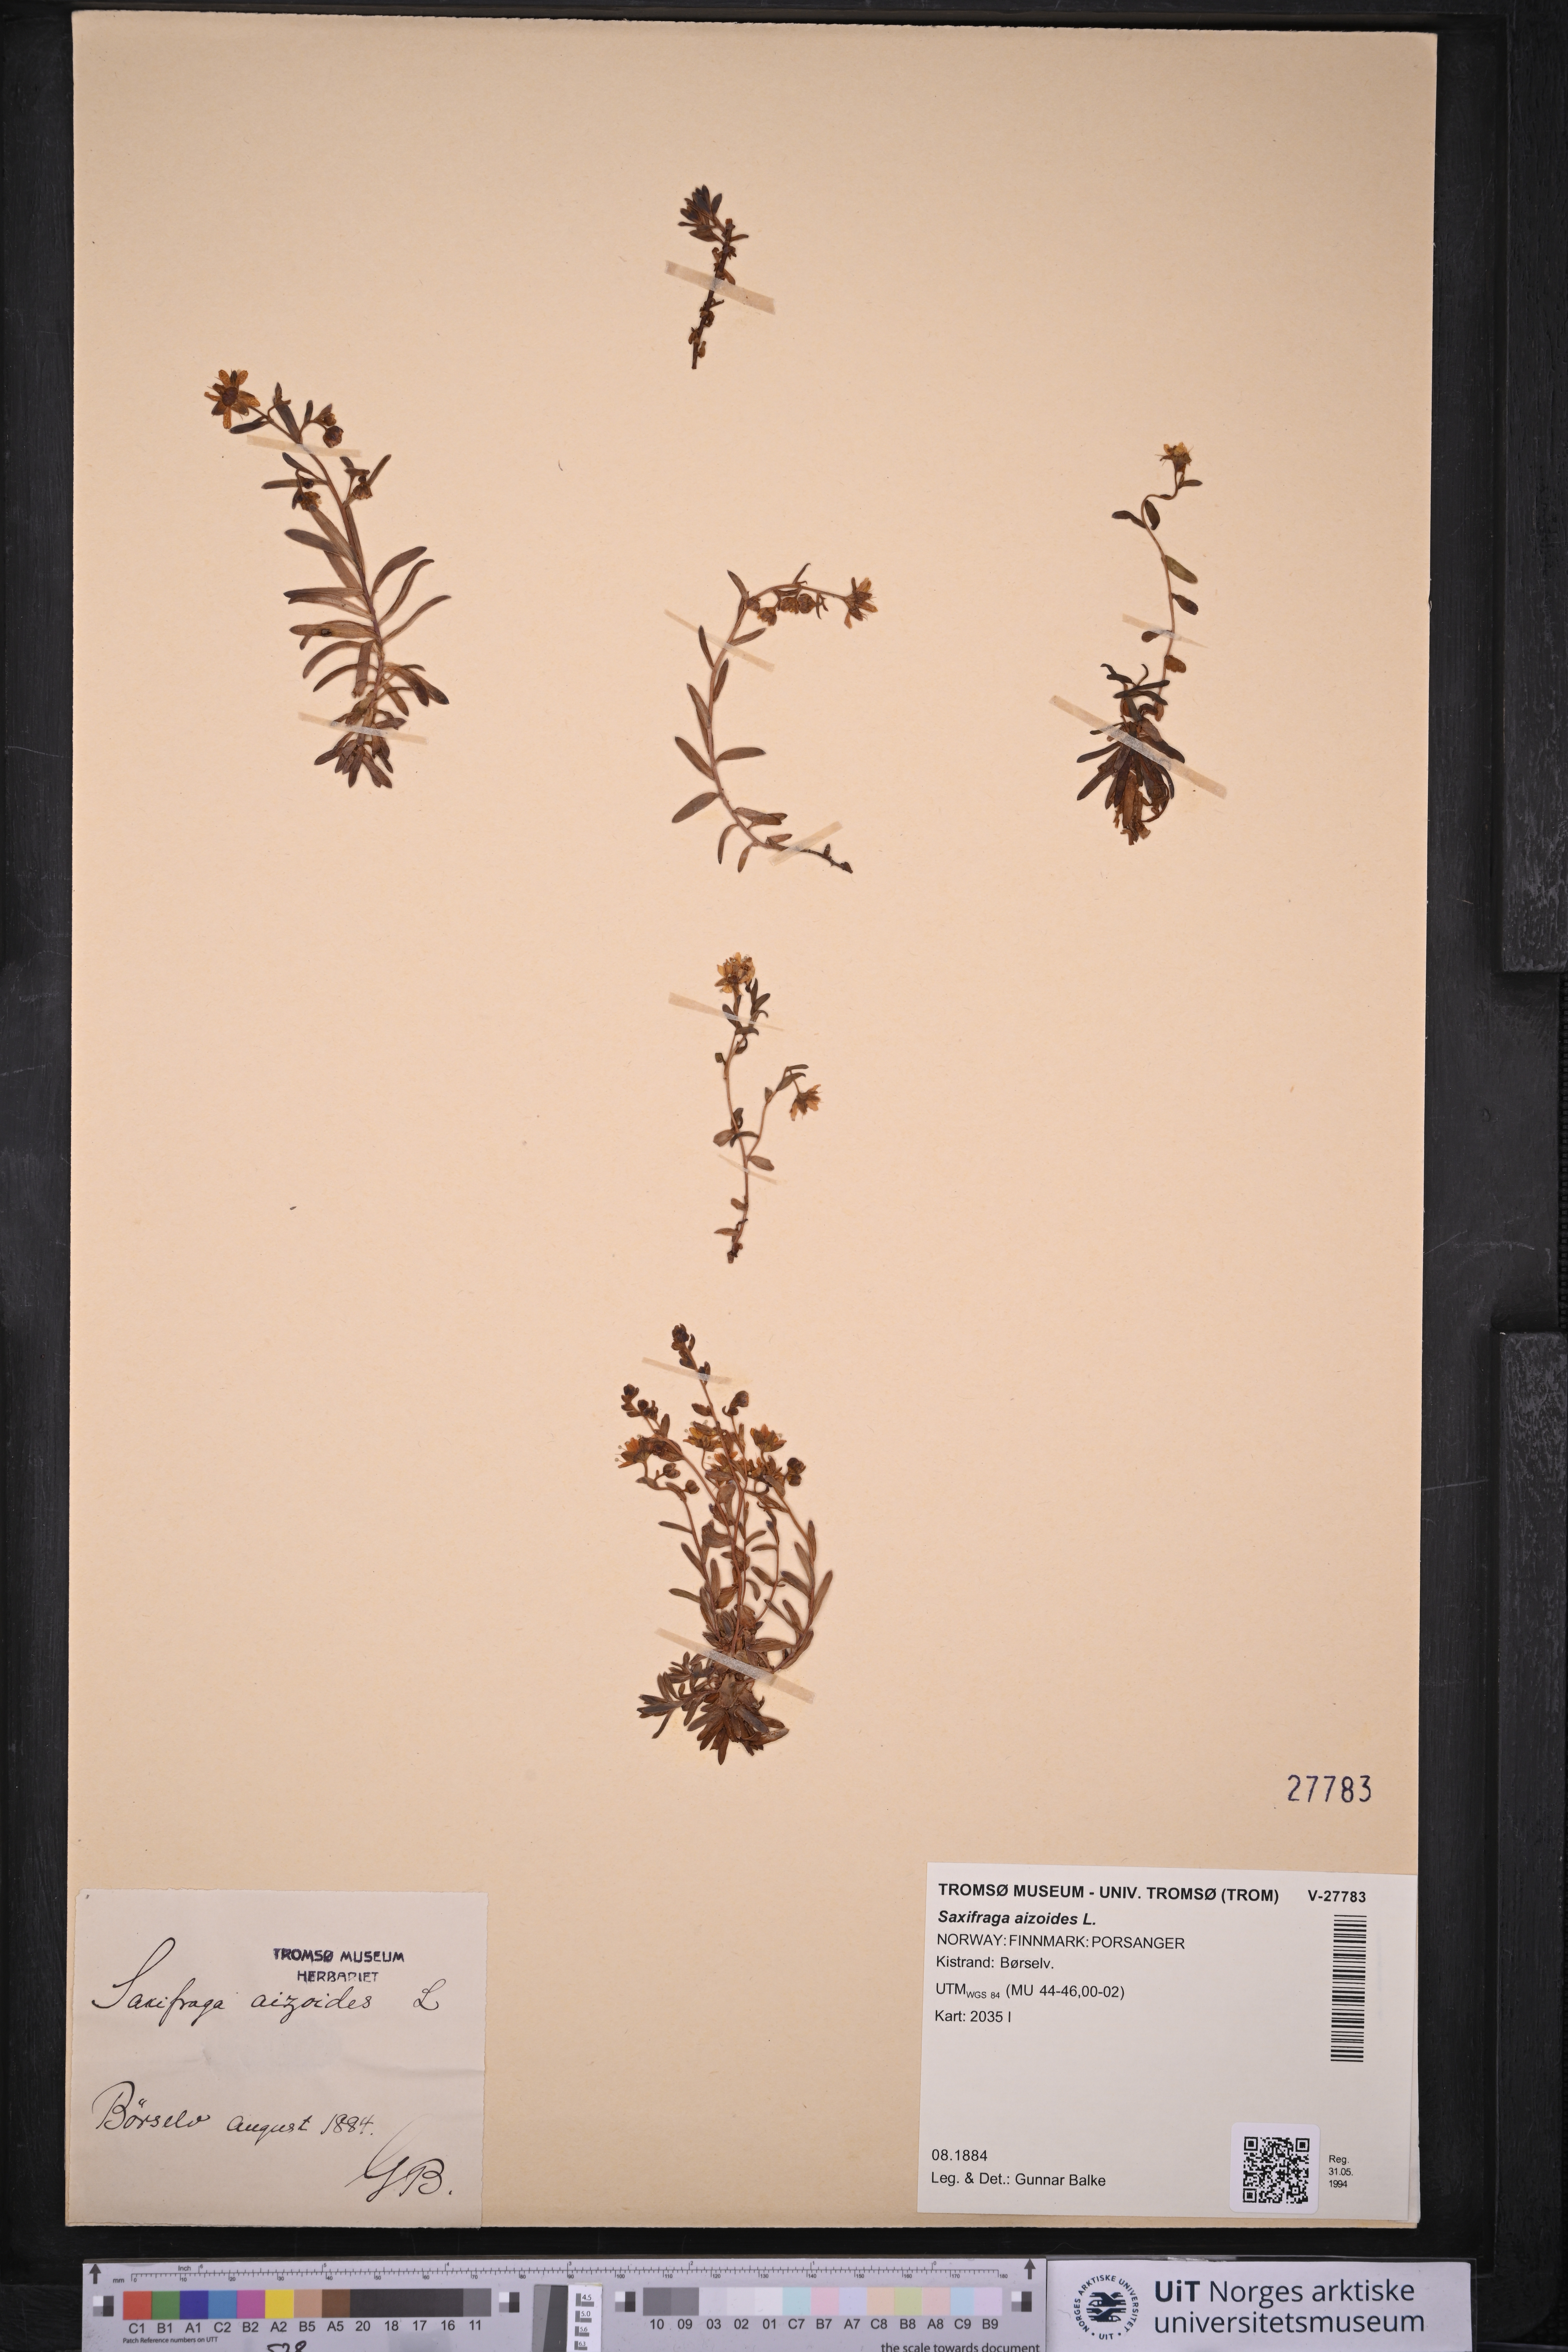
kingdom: Plantae
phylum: Tracheophyta
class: Magnoliopsida
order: Saxifragales
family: Saxifragaceae
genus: Saxifraga
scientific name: Saxifraga aizoides
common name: Yellow mountain saxifrage
